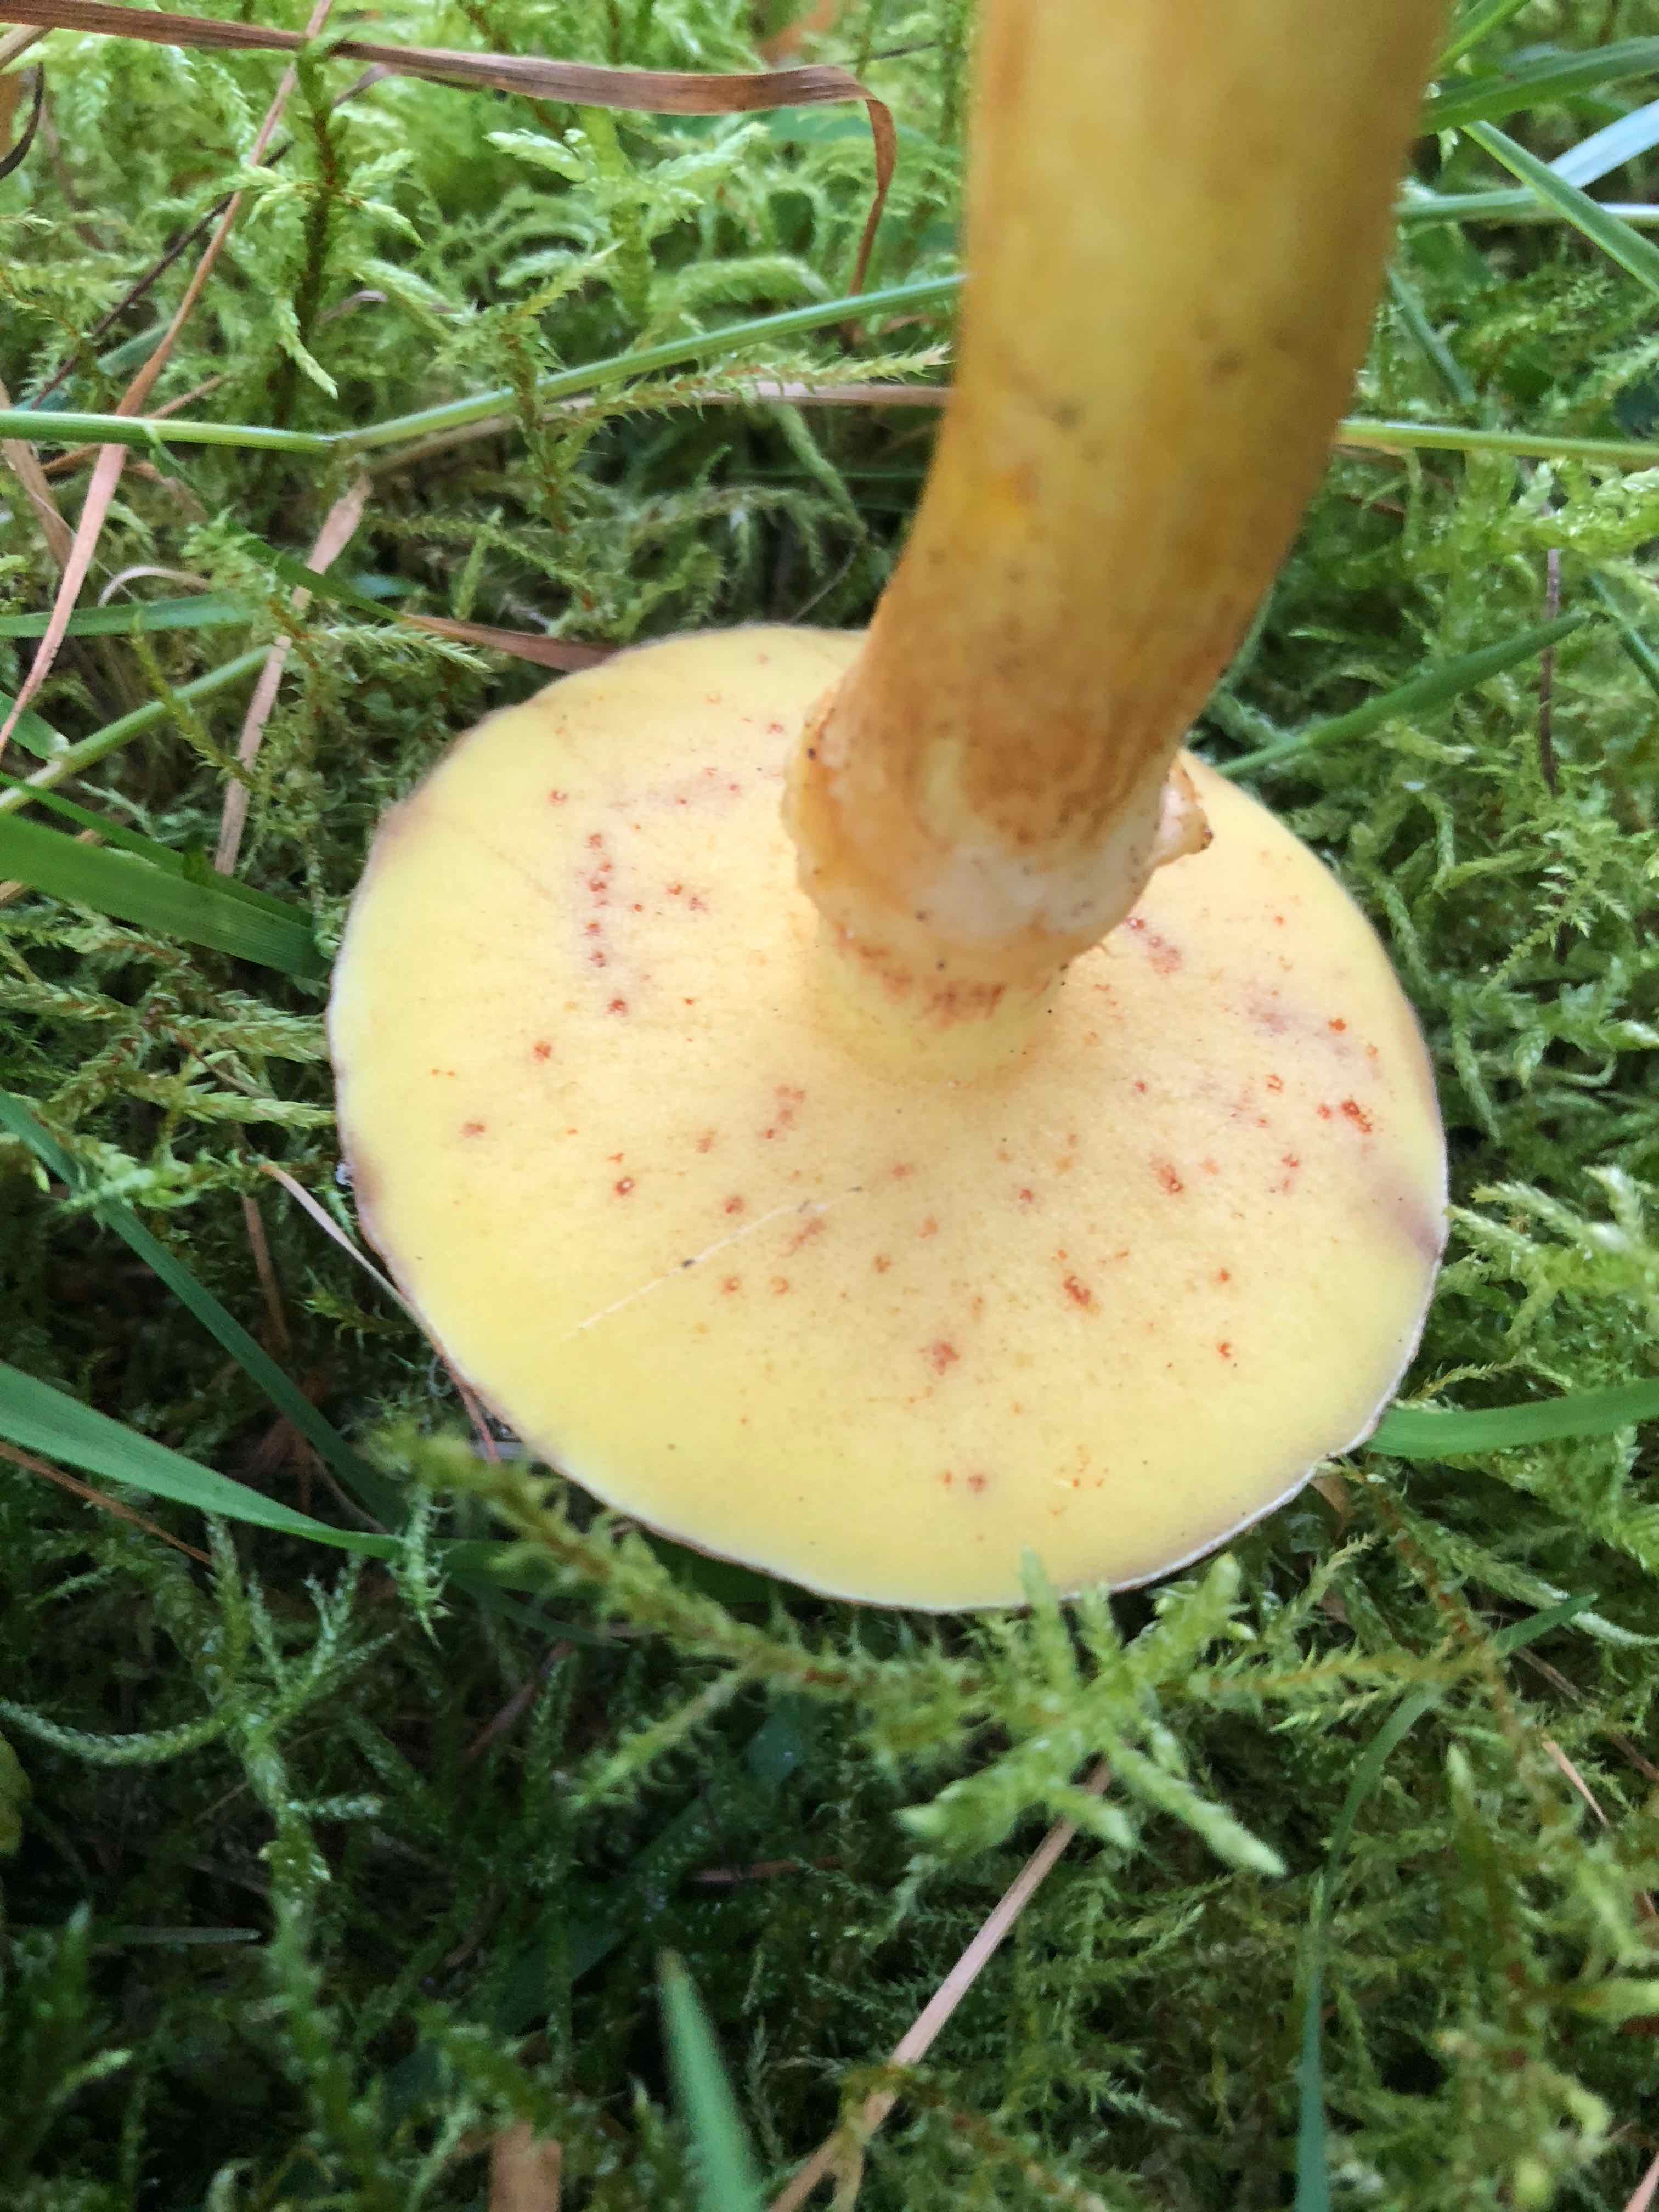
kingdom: Fungi
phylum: Basidiomycota
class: Agaricomycetes
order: Boletales
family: Suillaceae
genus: Suillus
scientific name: Suillus grevillei
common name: lærke-slimrørhat
